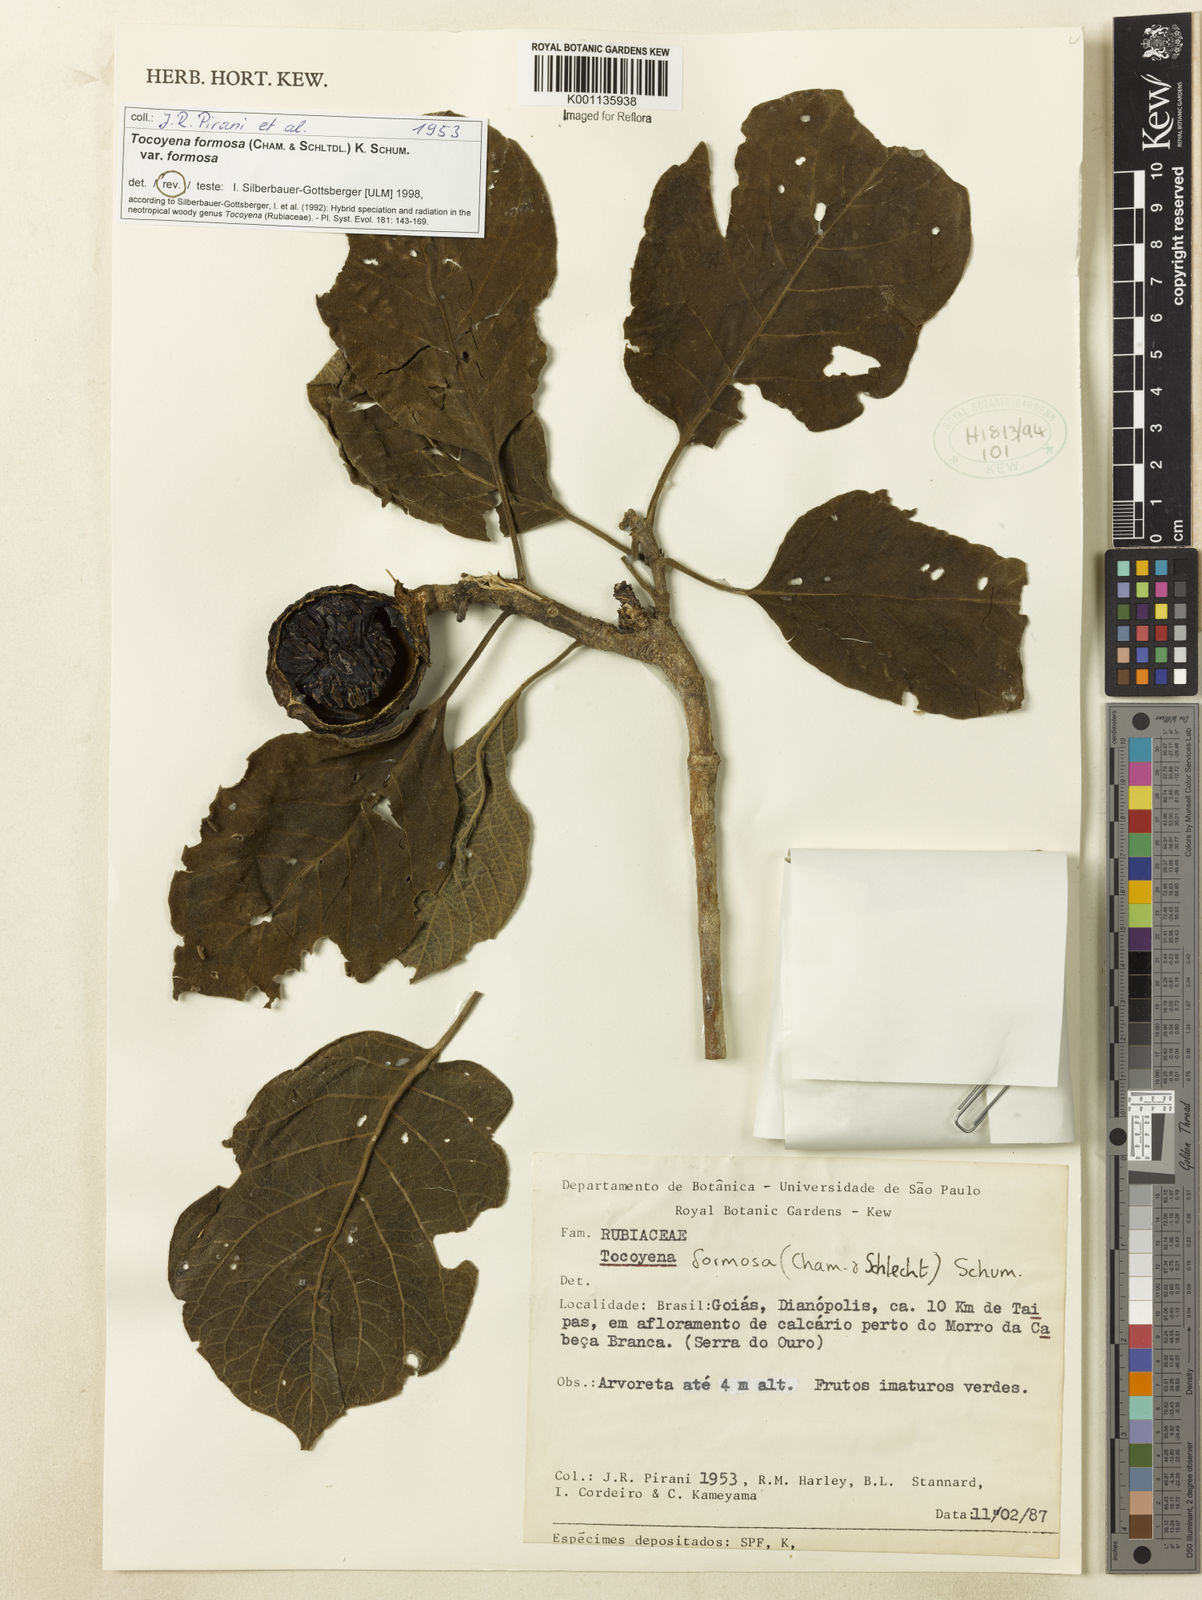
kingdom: Plantae
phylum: Tracheophyta
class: Magnoliopsida
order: Gentianales
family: Rubiaceae
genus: Tocoyena
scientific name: Tocoyena formosa
